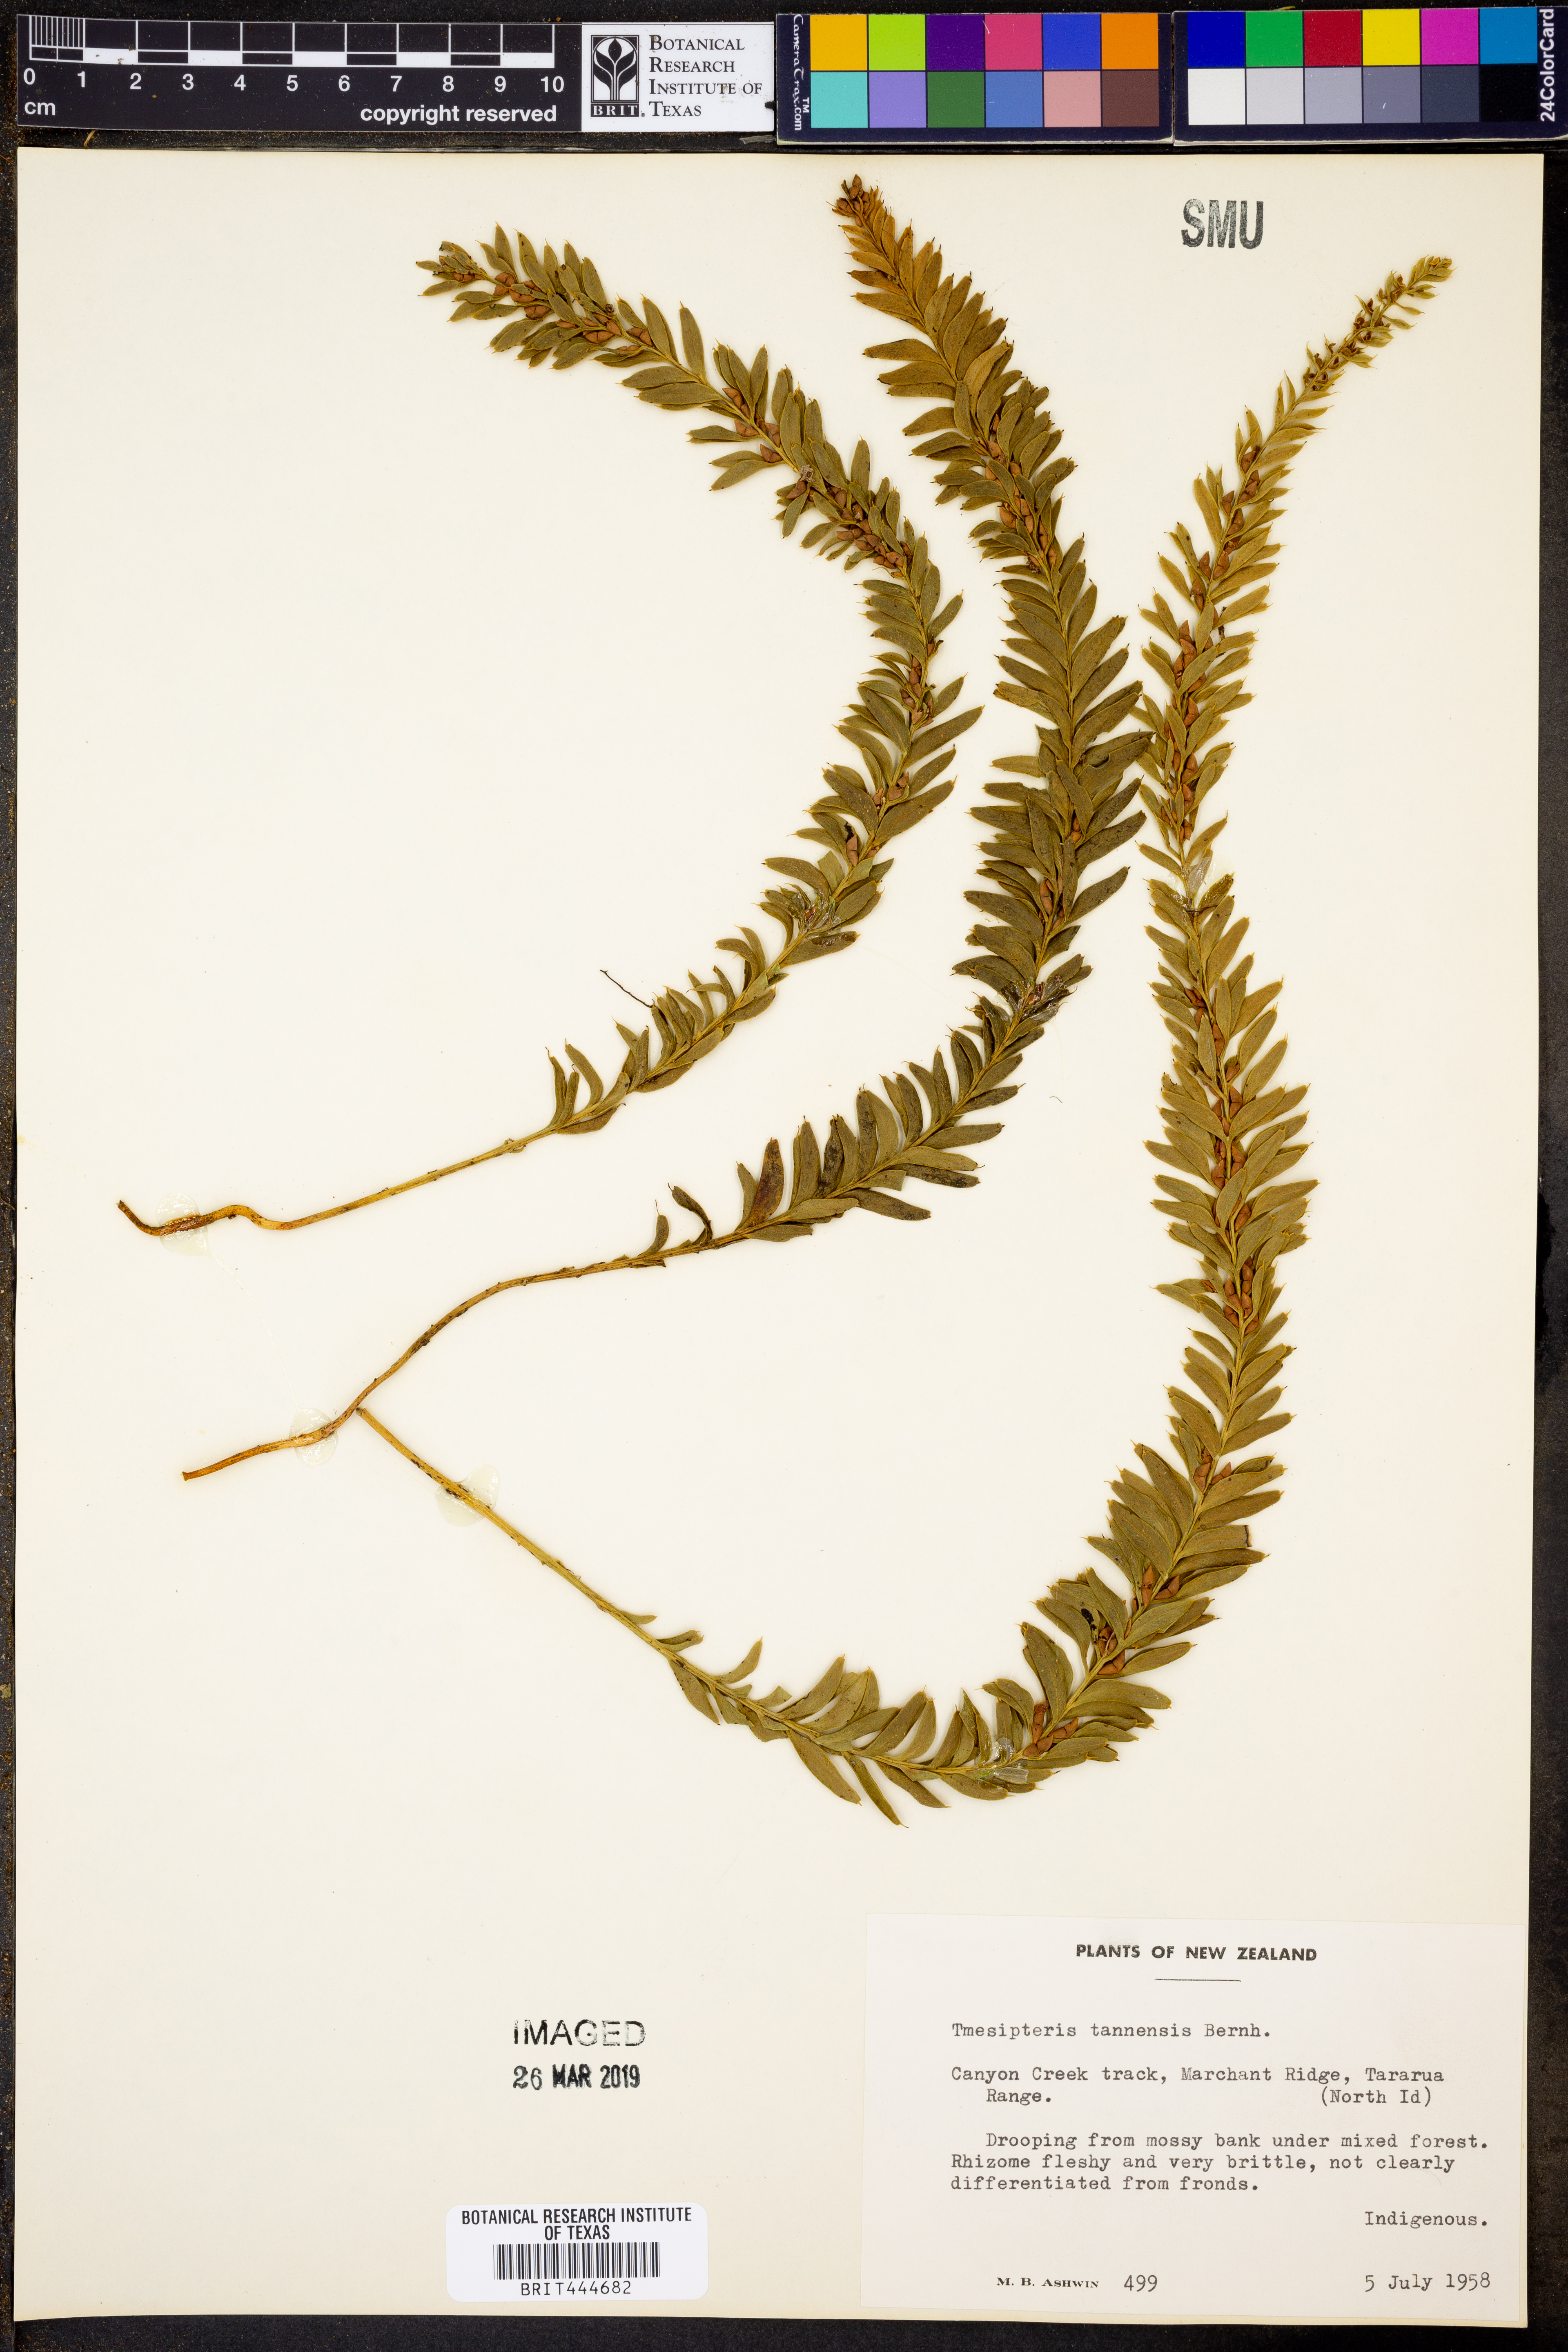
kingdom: Plantae
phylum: Tracheophyta
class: Polypodiopsida
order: Psilotales
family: Psilotaceae
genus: Tmesipteris
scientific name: Tmesipteris tannensis
